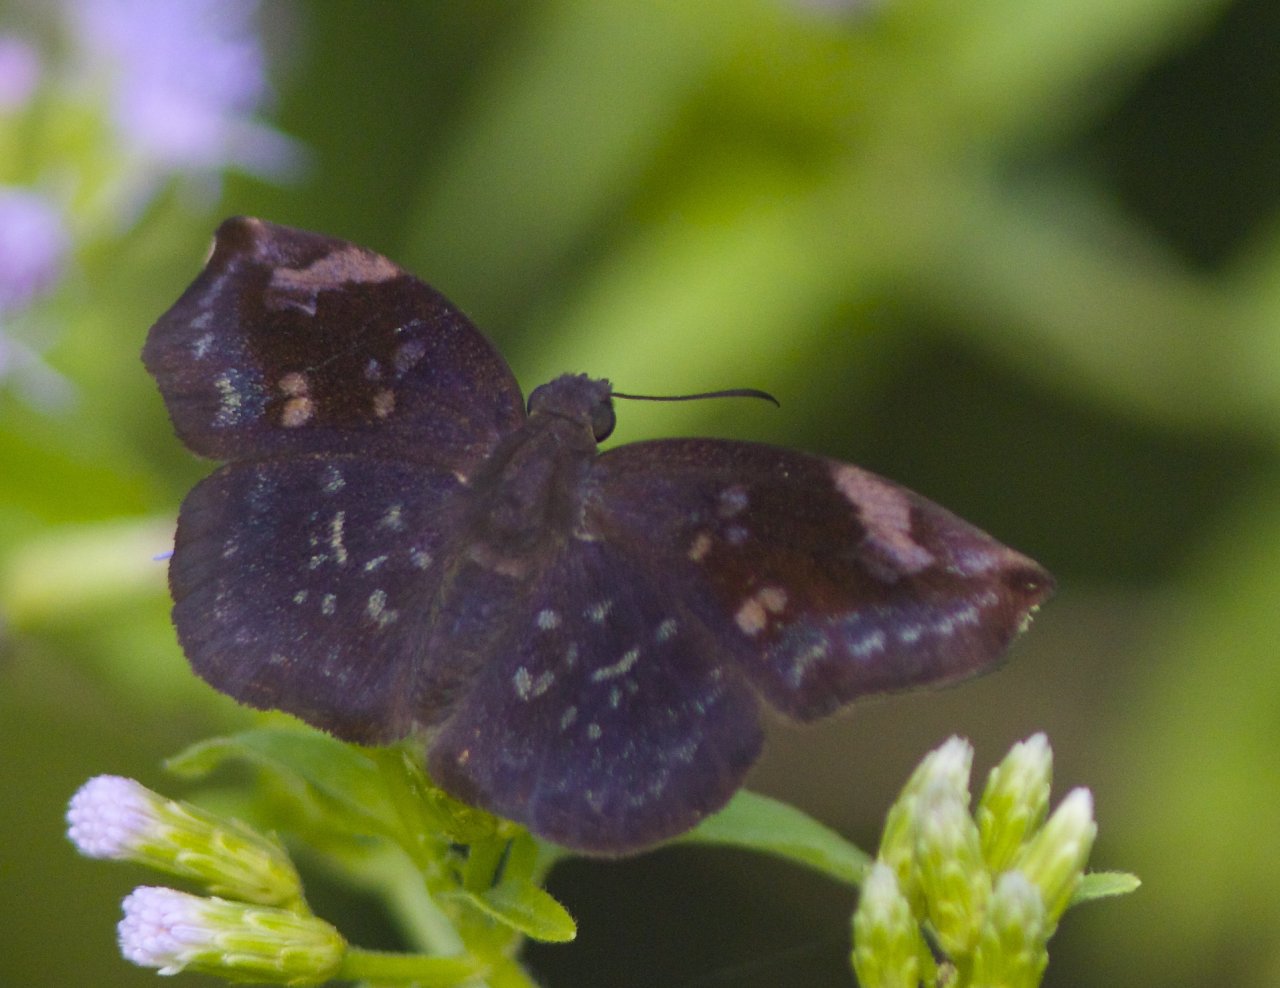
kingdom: Animalia
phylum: Arthropoda
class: Insecta
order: Lepidoptera
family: Hesperiidae
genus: Achlyodes
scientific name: Achlyodes thraso
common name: Sickle-winged Skipper
